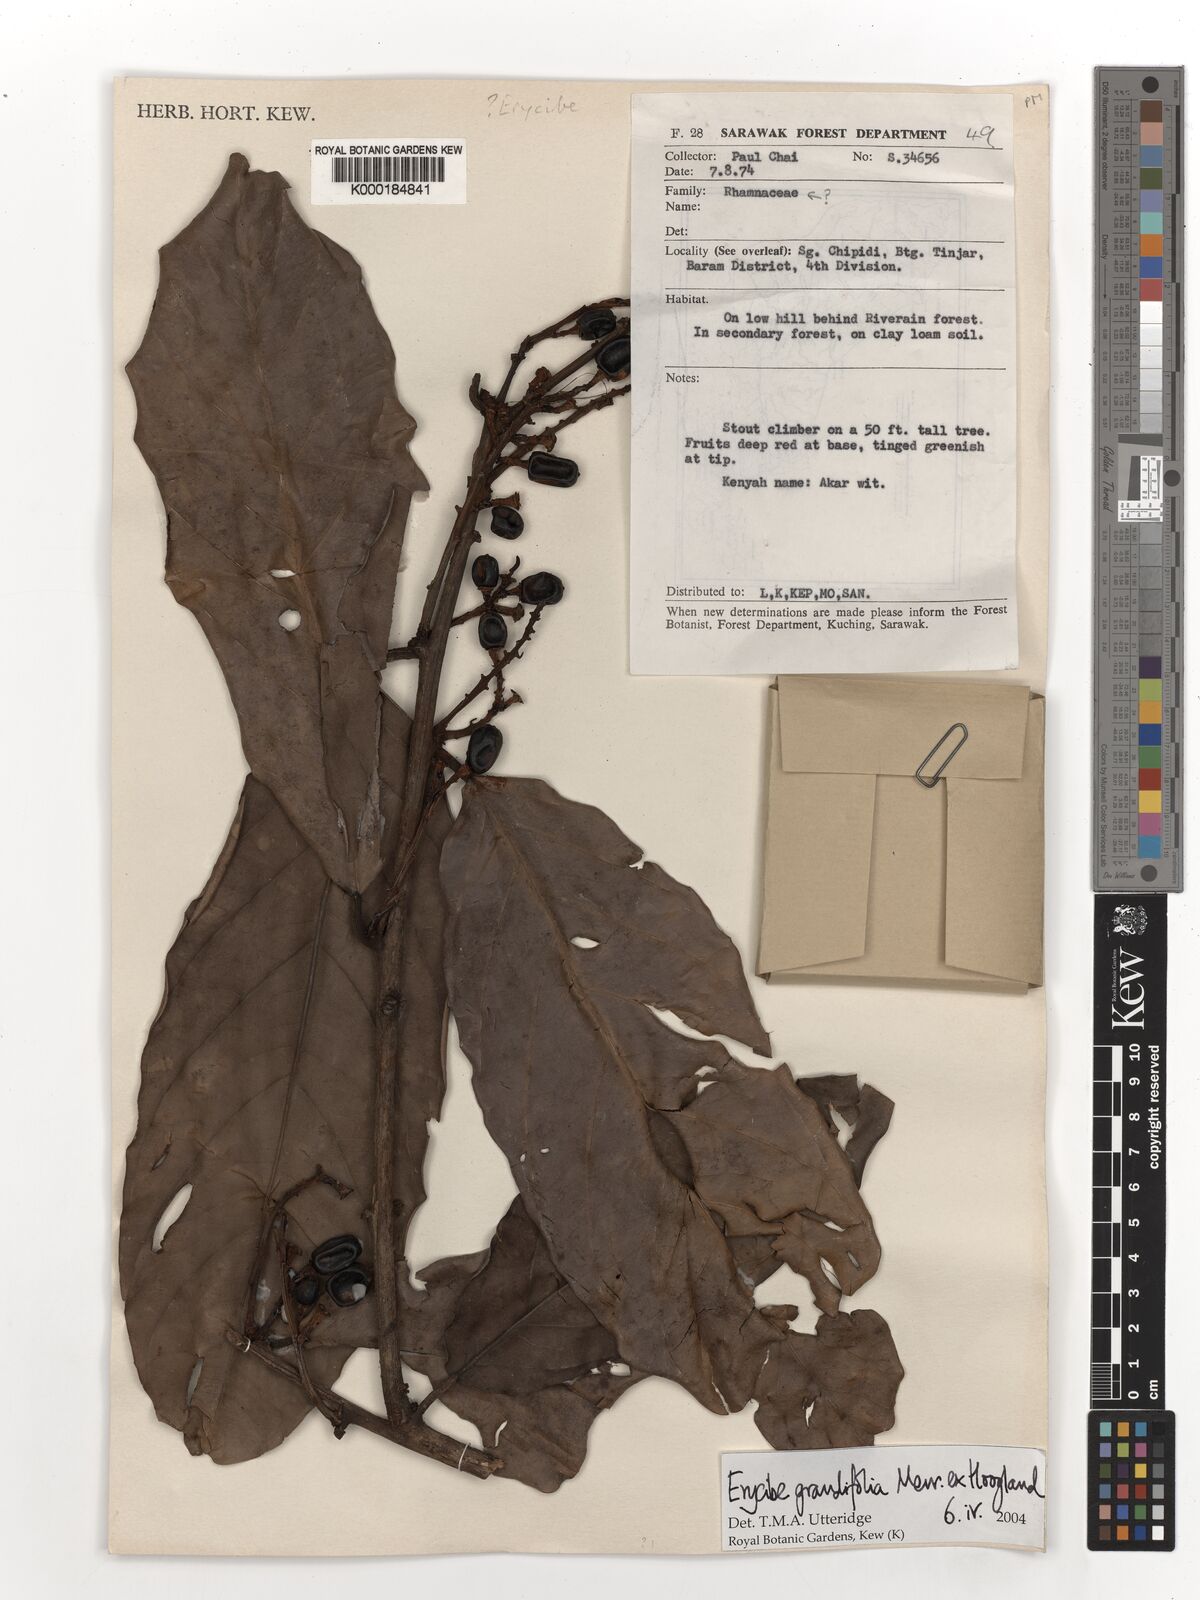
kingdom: Plantae
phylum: Tracheophyta
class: Magnoliopsida
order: Solanales
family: Convolvulaceae
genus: Erycibe
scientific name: Erycibe grandifolia
